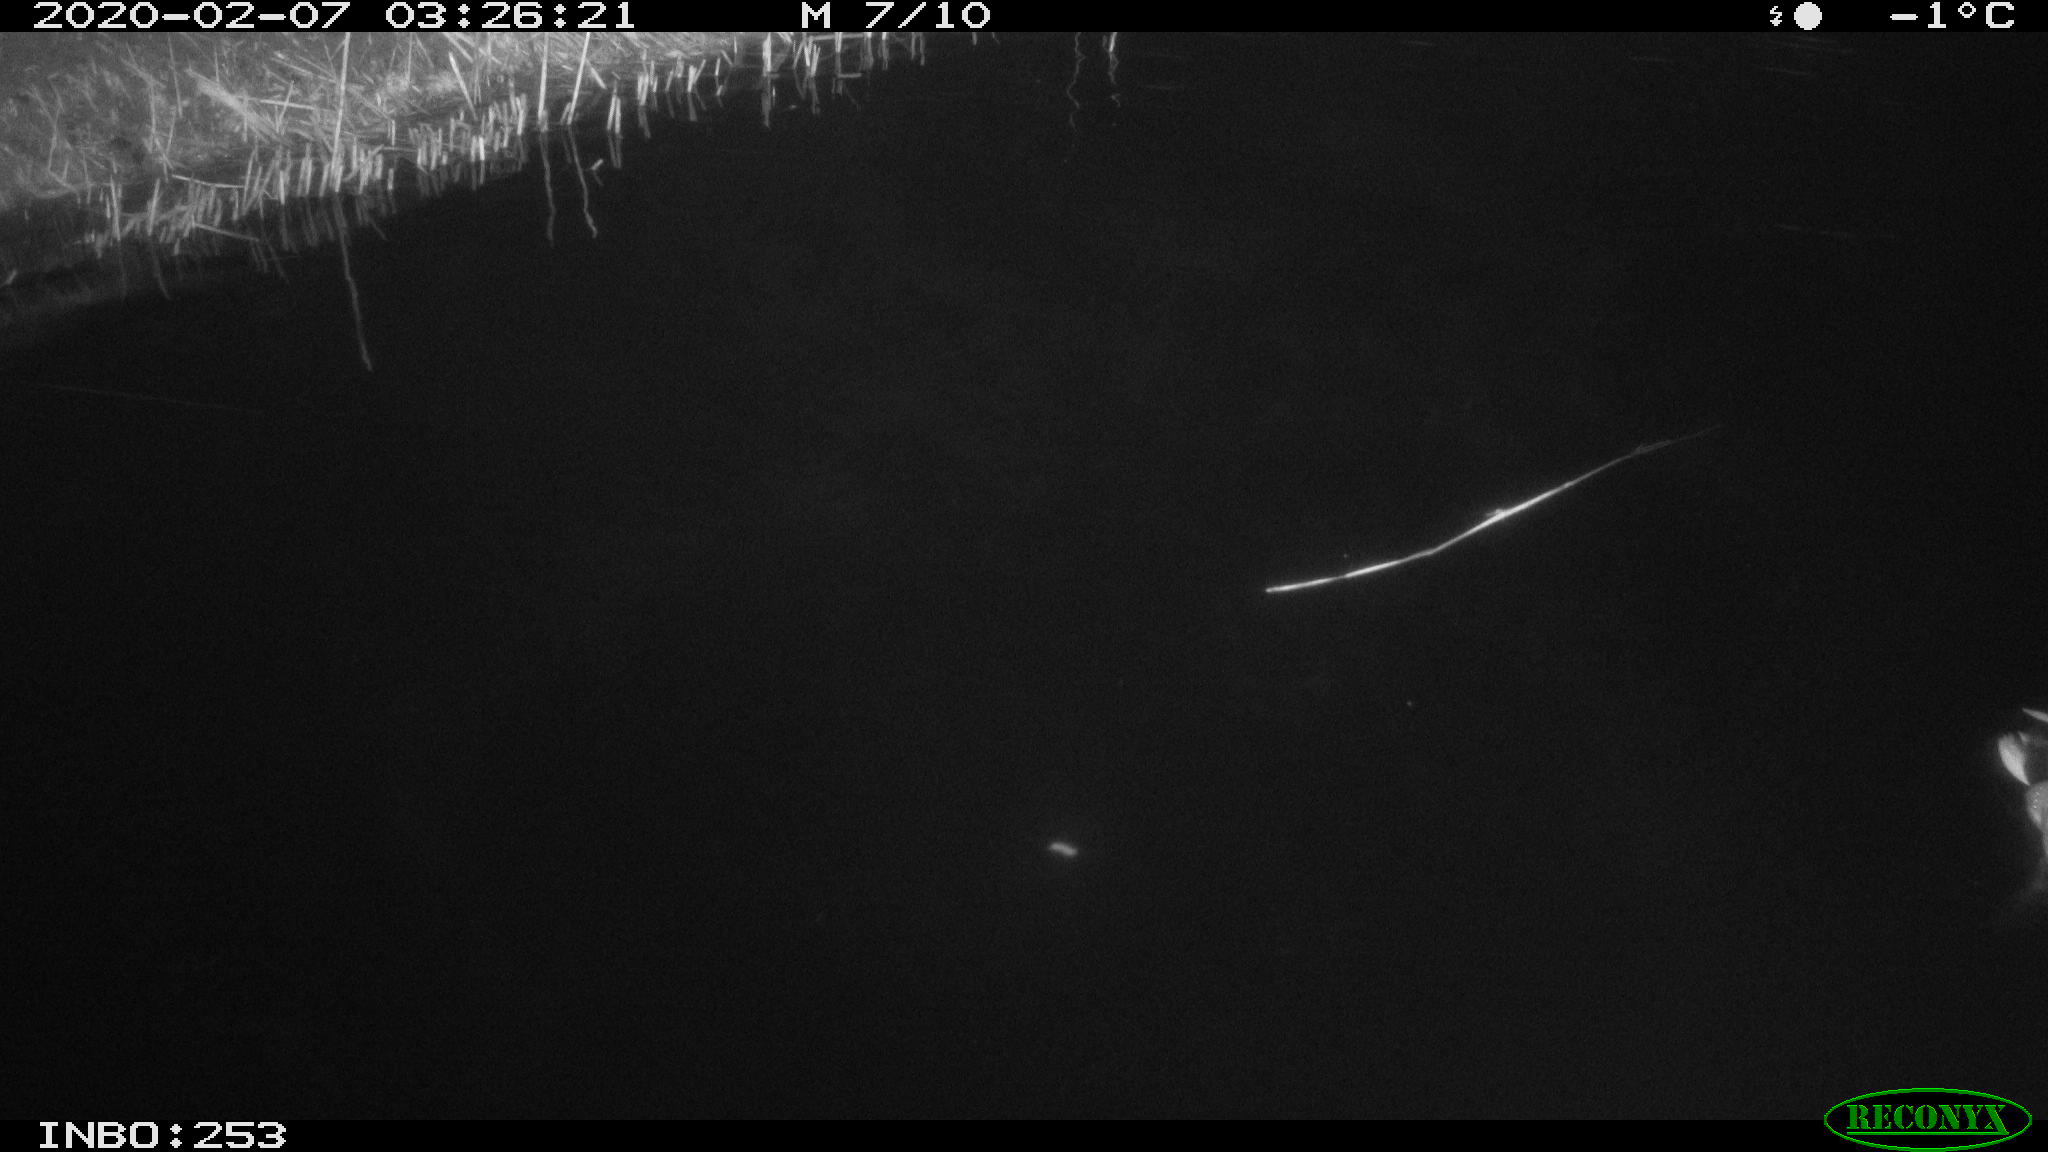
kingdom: Animalia
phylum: Chordata
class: Aves
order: Anseriformes
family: Anatidae
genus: Anas
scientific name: Anas platyrhynchos
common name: Mallard
